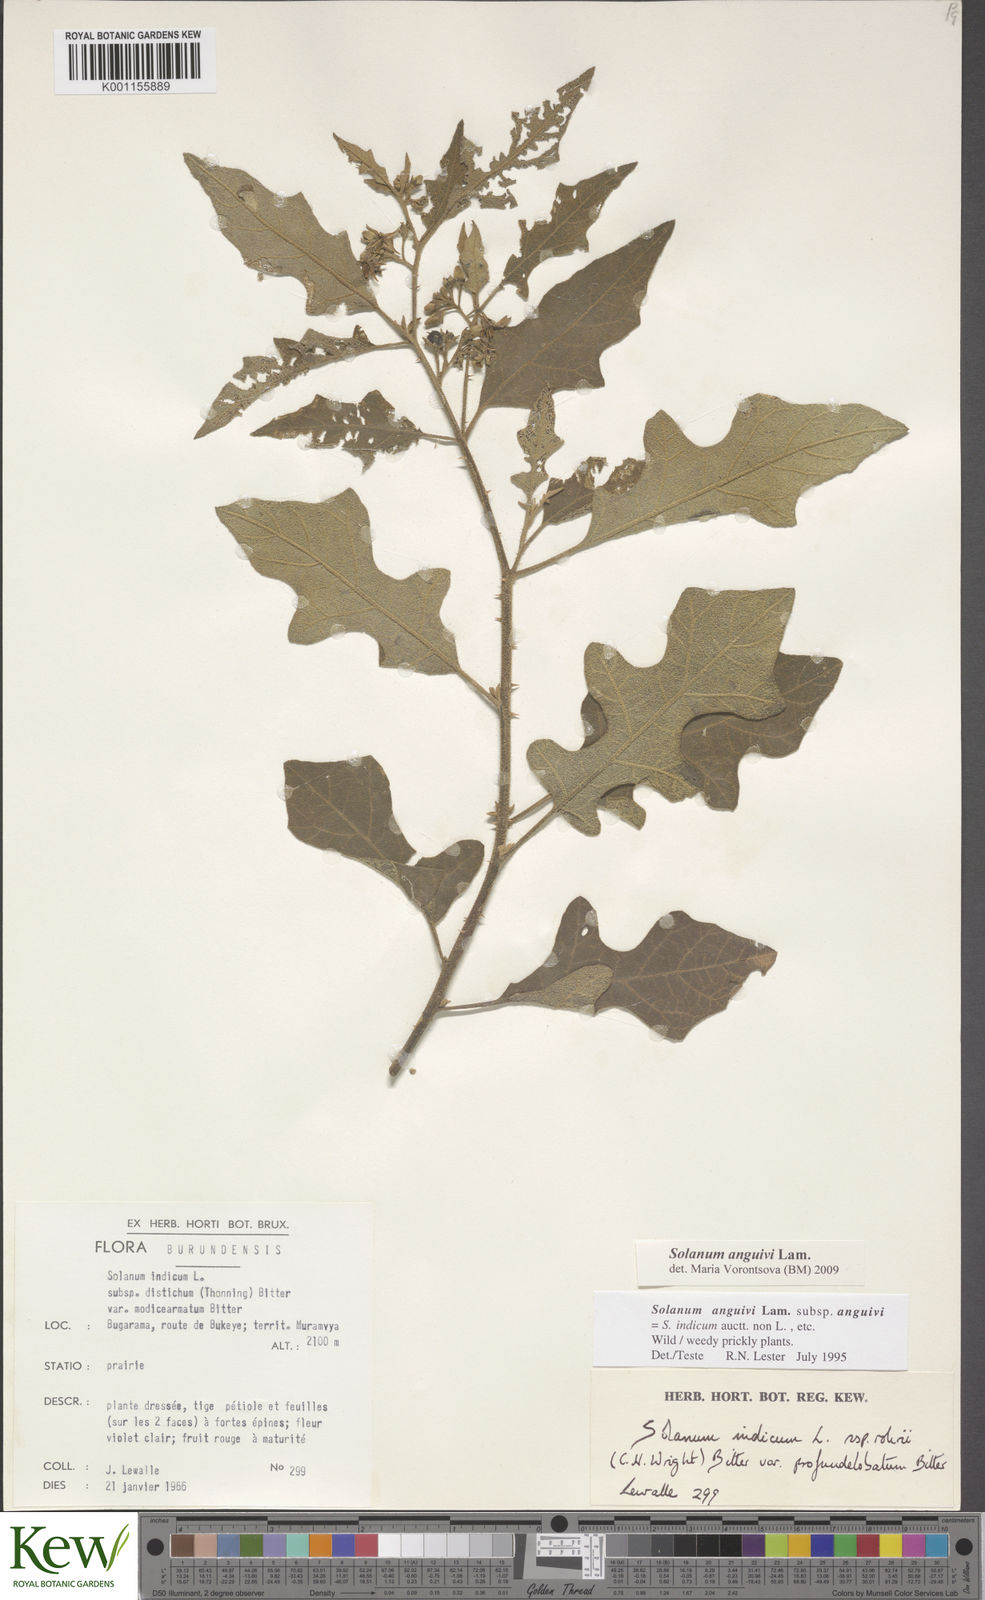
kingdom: Plantae
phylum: Tracheophyta
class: Magnoliopsida
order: Solanales
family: Solanaceae
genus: Solanum
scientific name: Solanum anguivi
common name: Forest bitterberry
